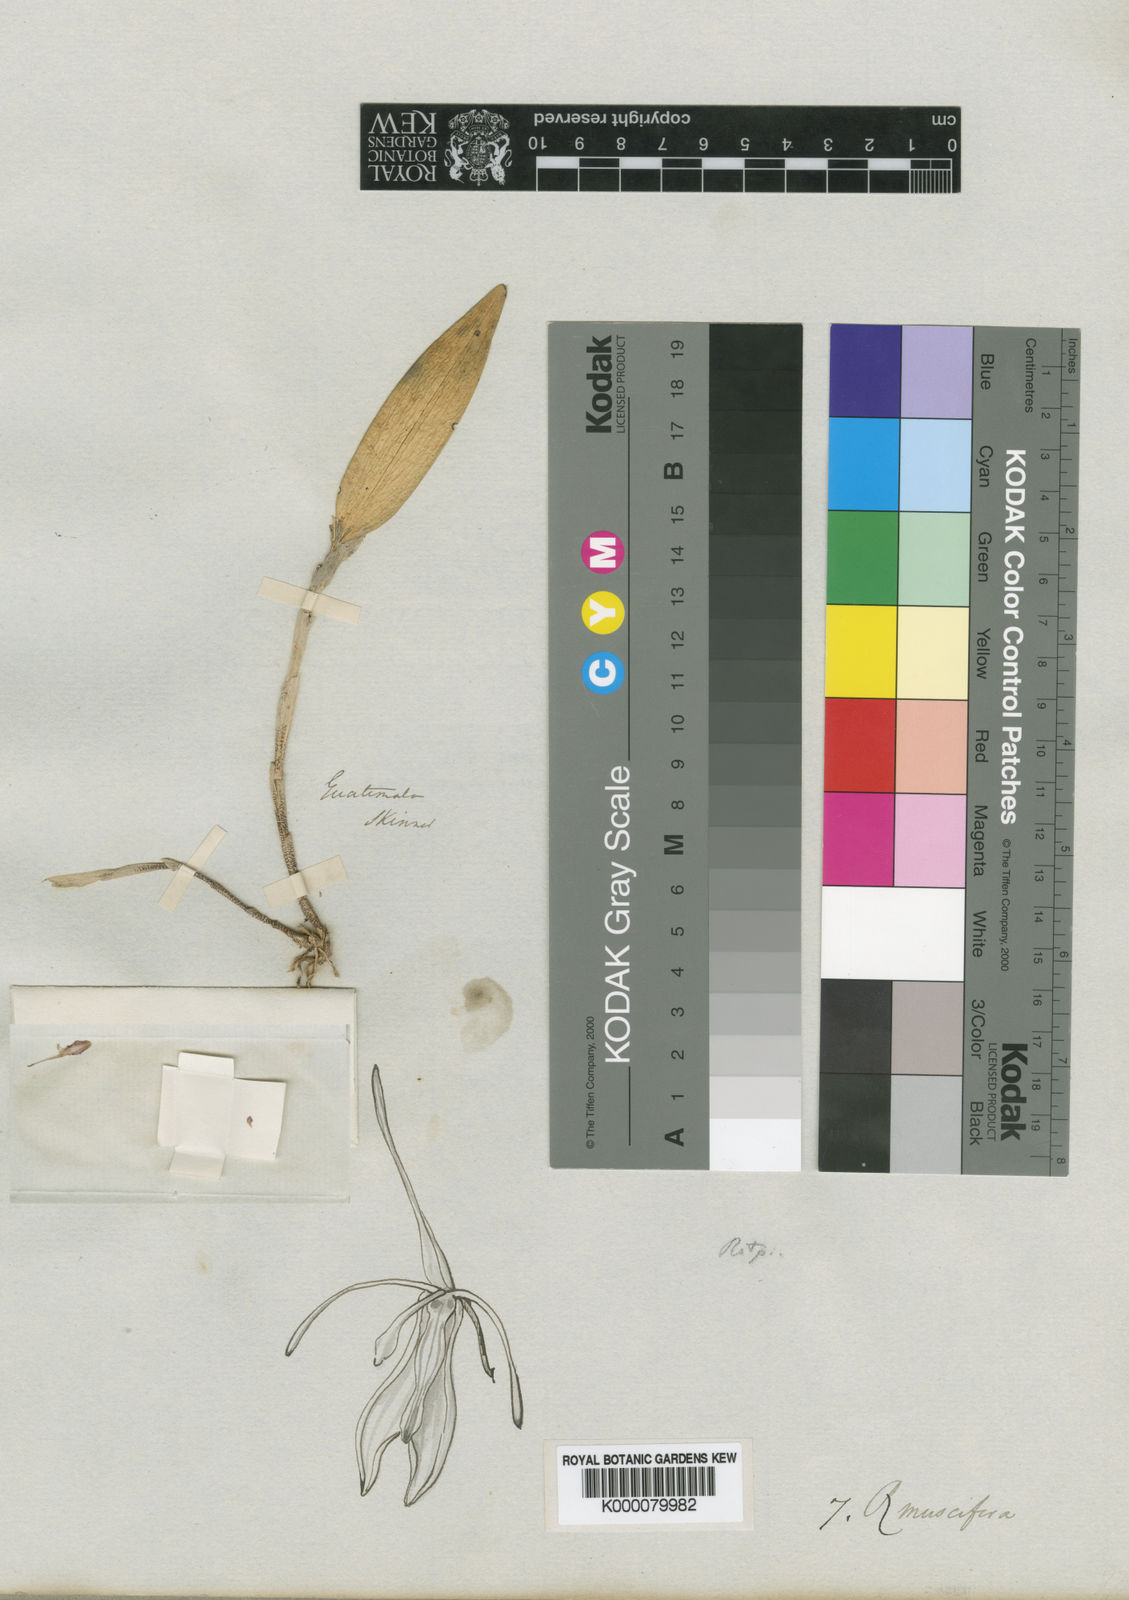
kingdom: Plantae
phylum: Tracheophyta
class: Liliopsida
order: Asparagales
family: Orchidaceae
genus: Restrepia
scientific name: Restrepia muscifera
